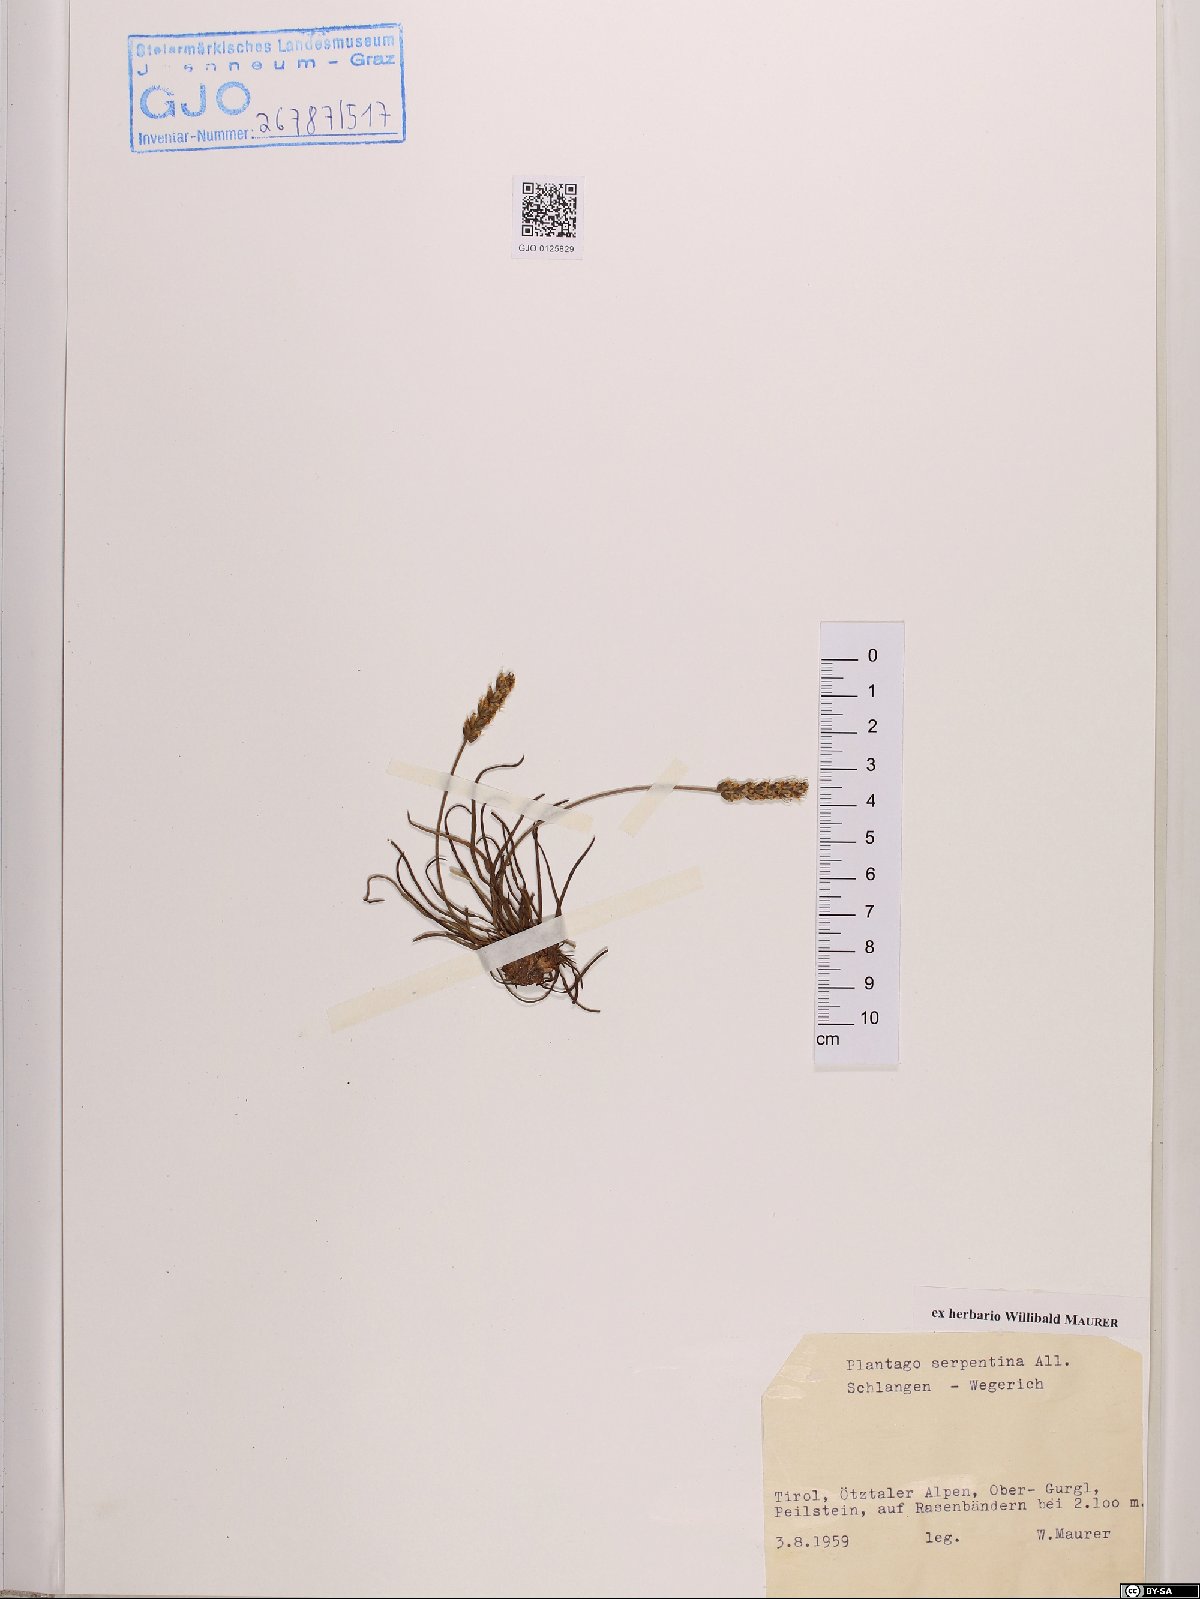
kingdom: Plantae
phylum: Tracheophyta
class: Magnoliopsida
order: Lamiales
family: Plantaginaceae
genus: Plantago
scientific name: Plantago strictissima
